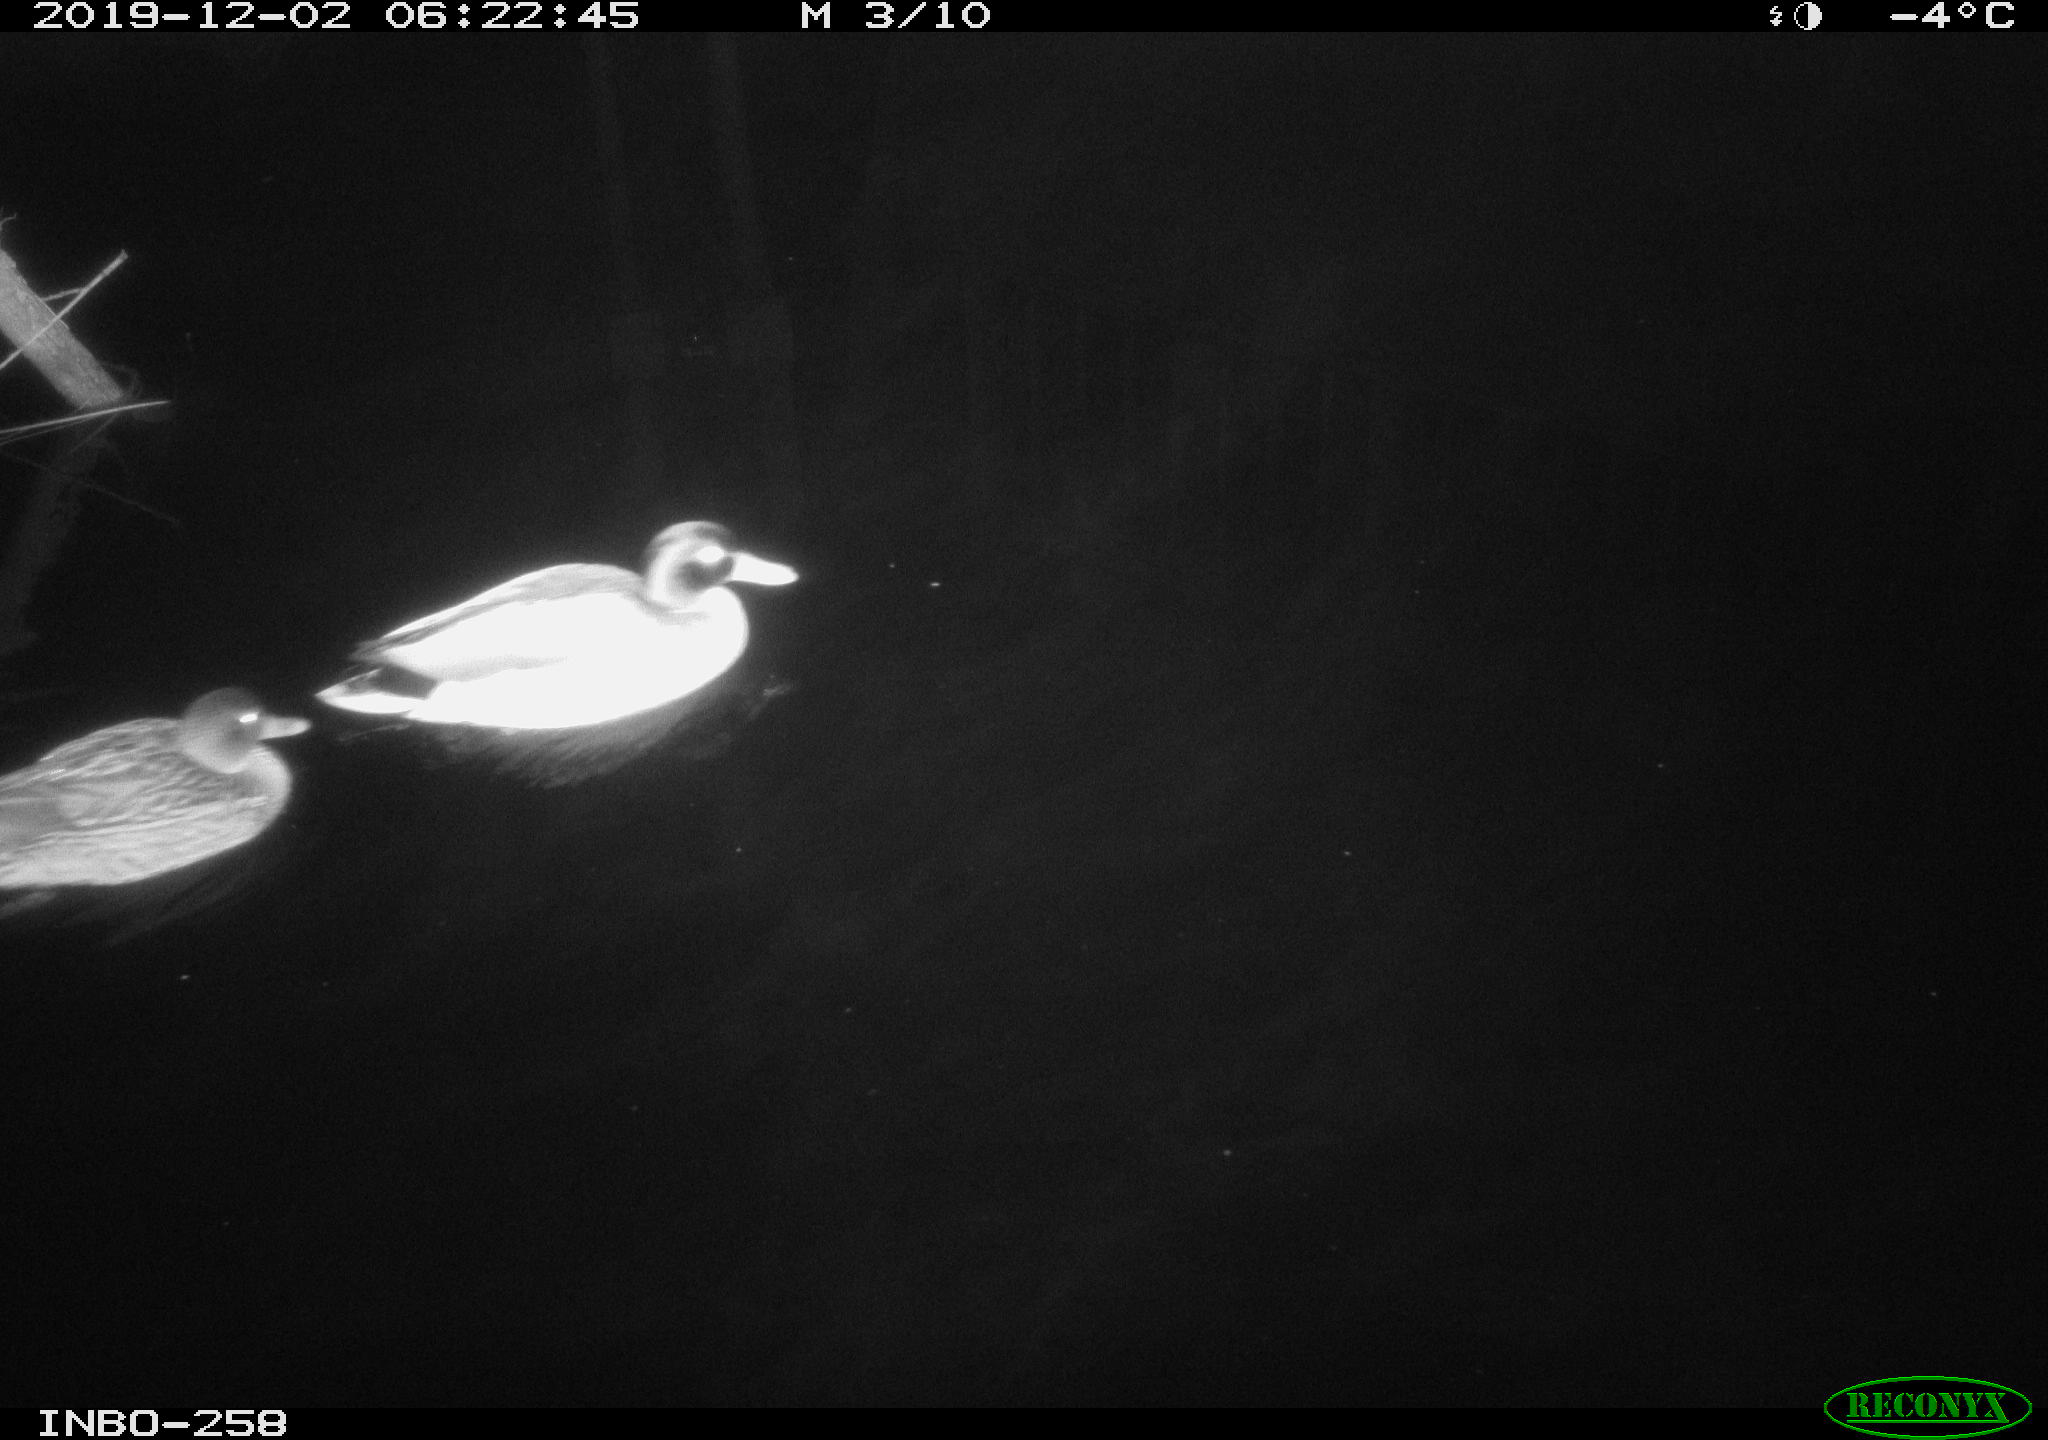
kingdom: Animalia
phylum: Chordata
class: Aves
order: Anseriformes
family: Anatidae
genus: Anas
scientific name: Anas platyrhynchos
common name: Mallard
